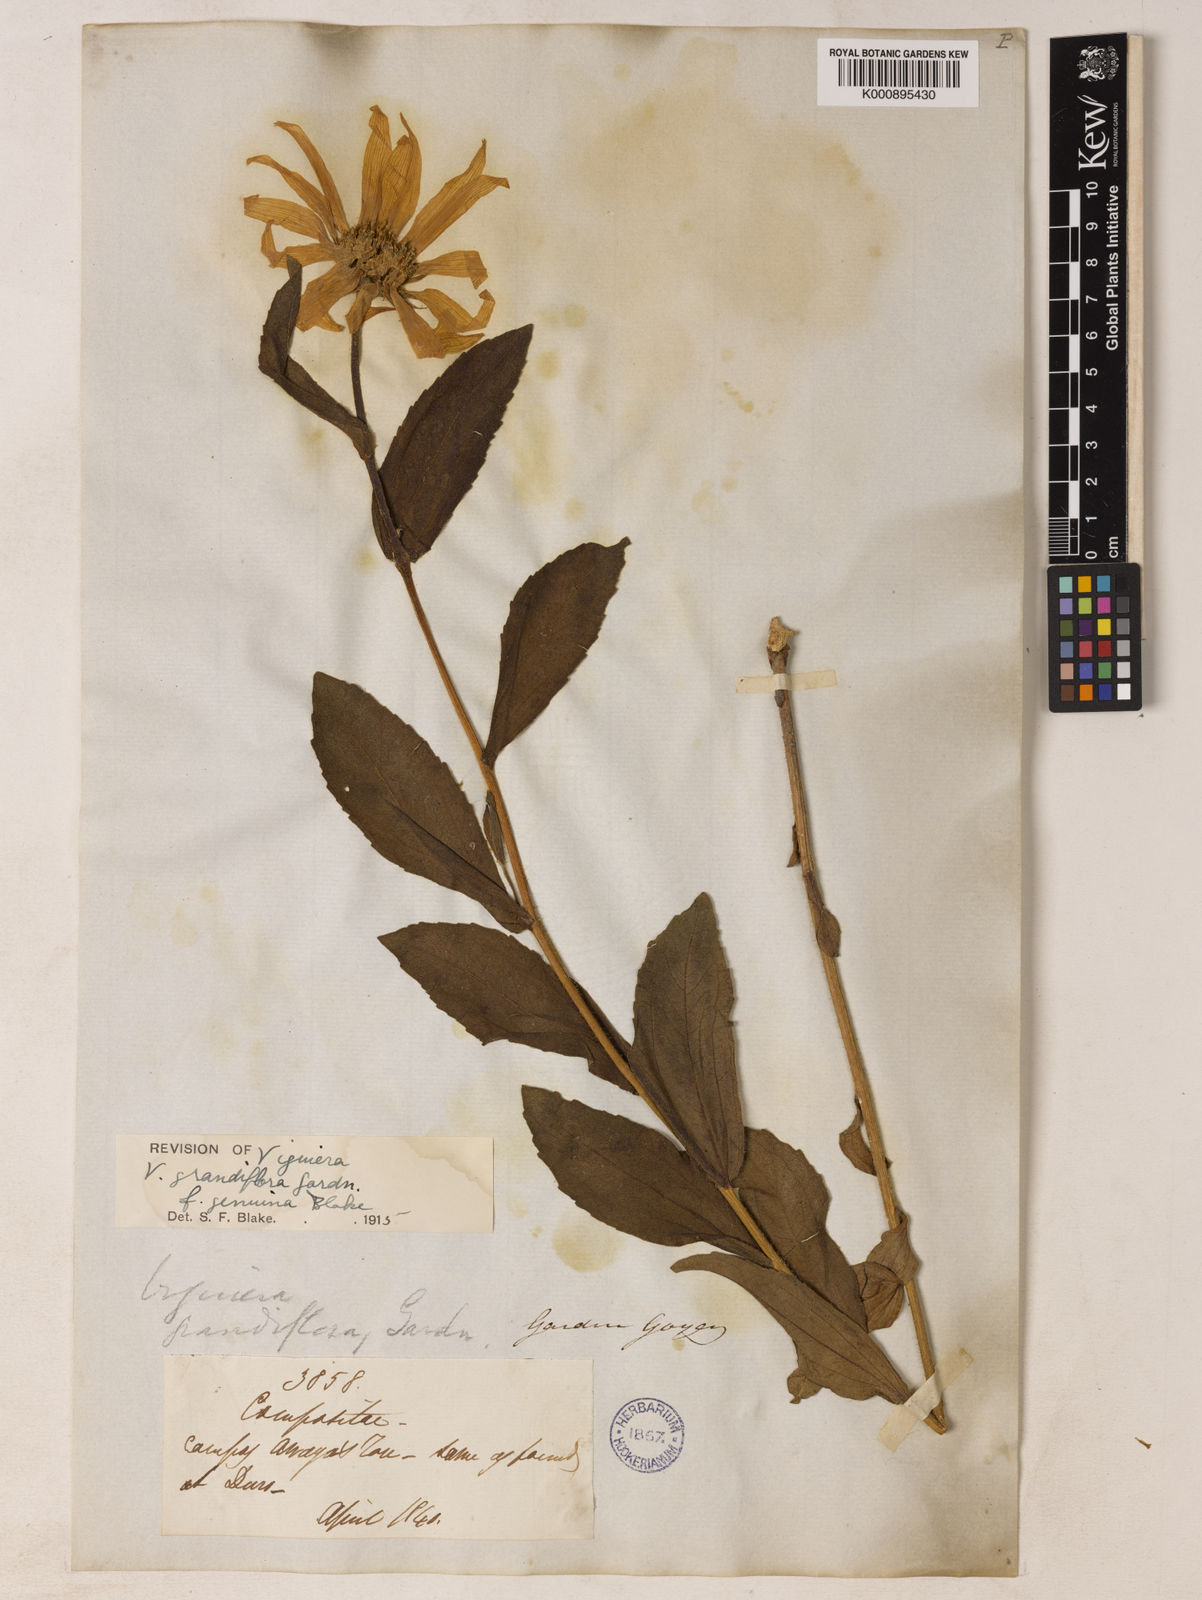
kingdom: Plantae
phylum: Tracheophyta
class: Magnoliopsida
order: Asterales
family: Asteraceae
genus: Aldama
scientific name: Aldama grandiflora
